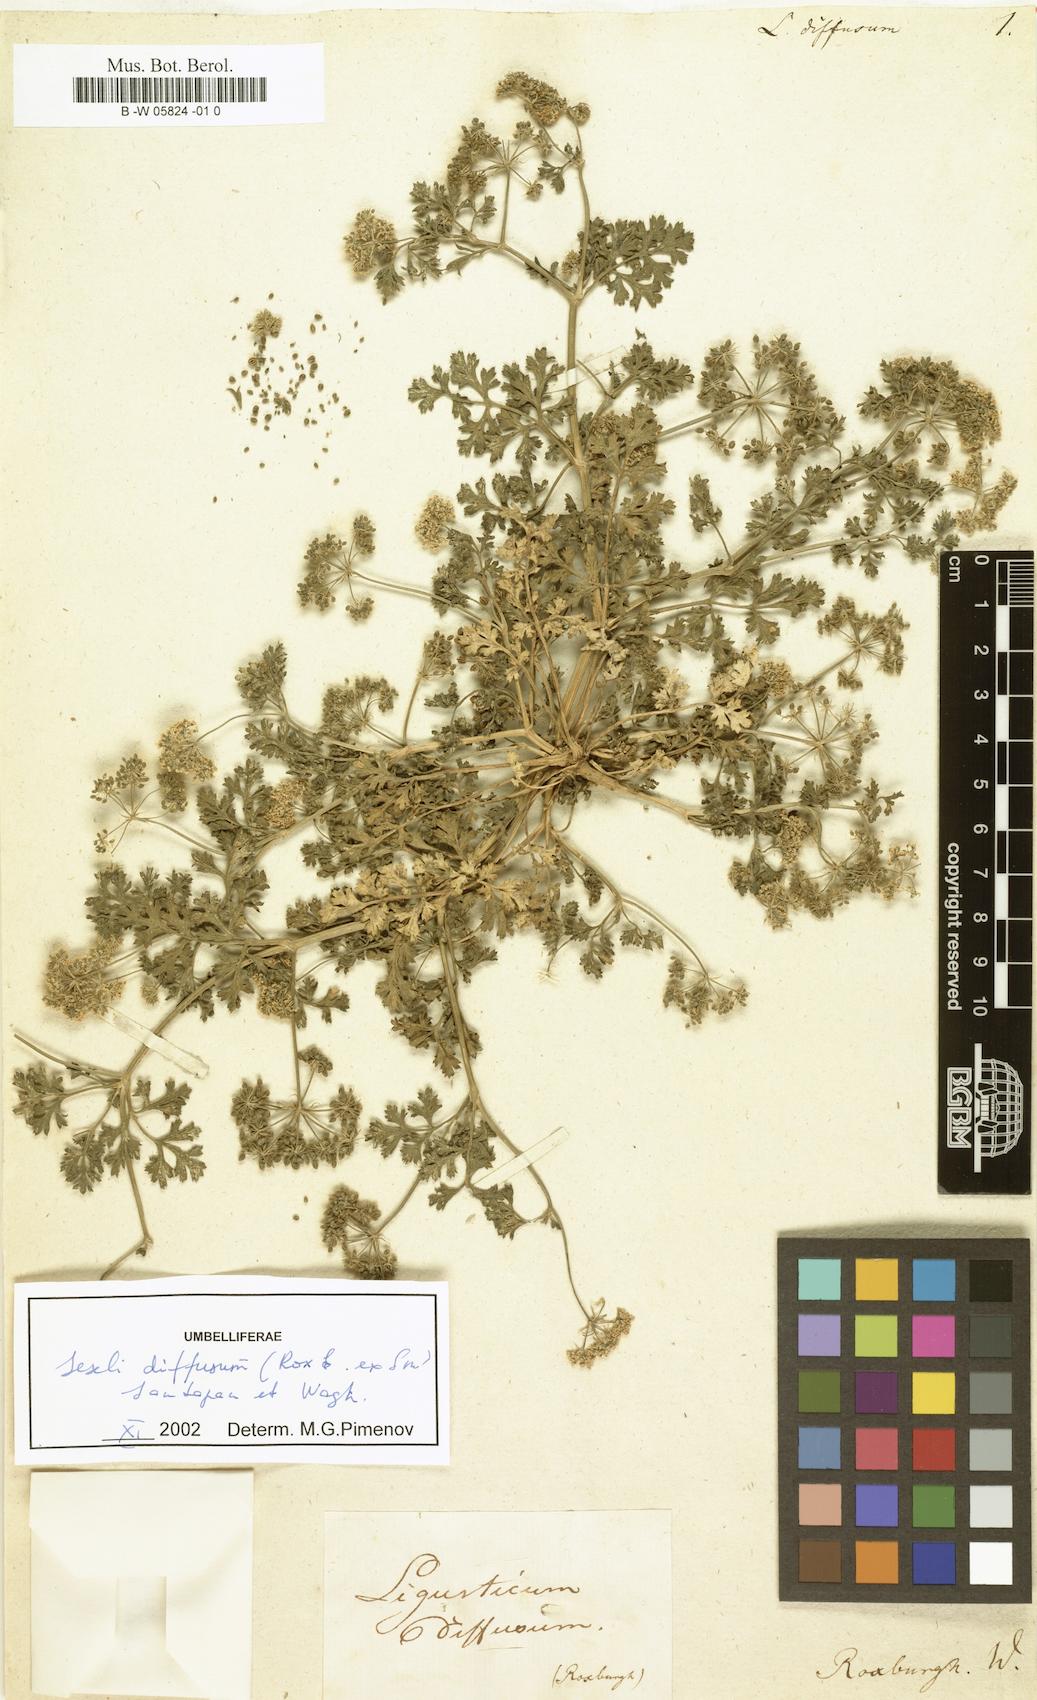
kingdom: Plantae
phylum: Tracheophyta
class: Magnoliopsida
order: Apiales
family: Apiaceae
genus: Psammogeton
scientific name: Psammogeton diffusum
